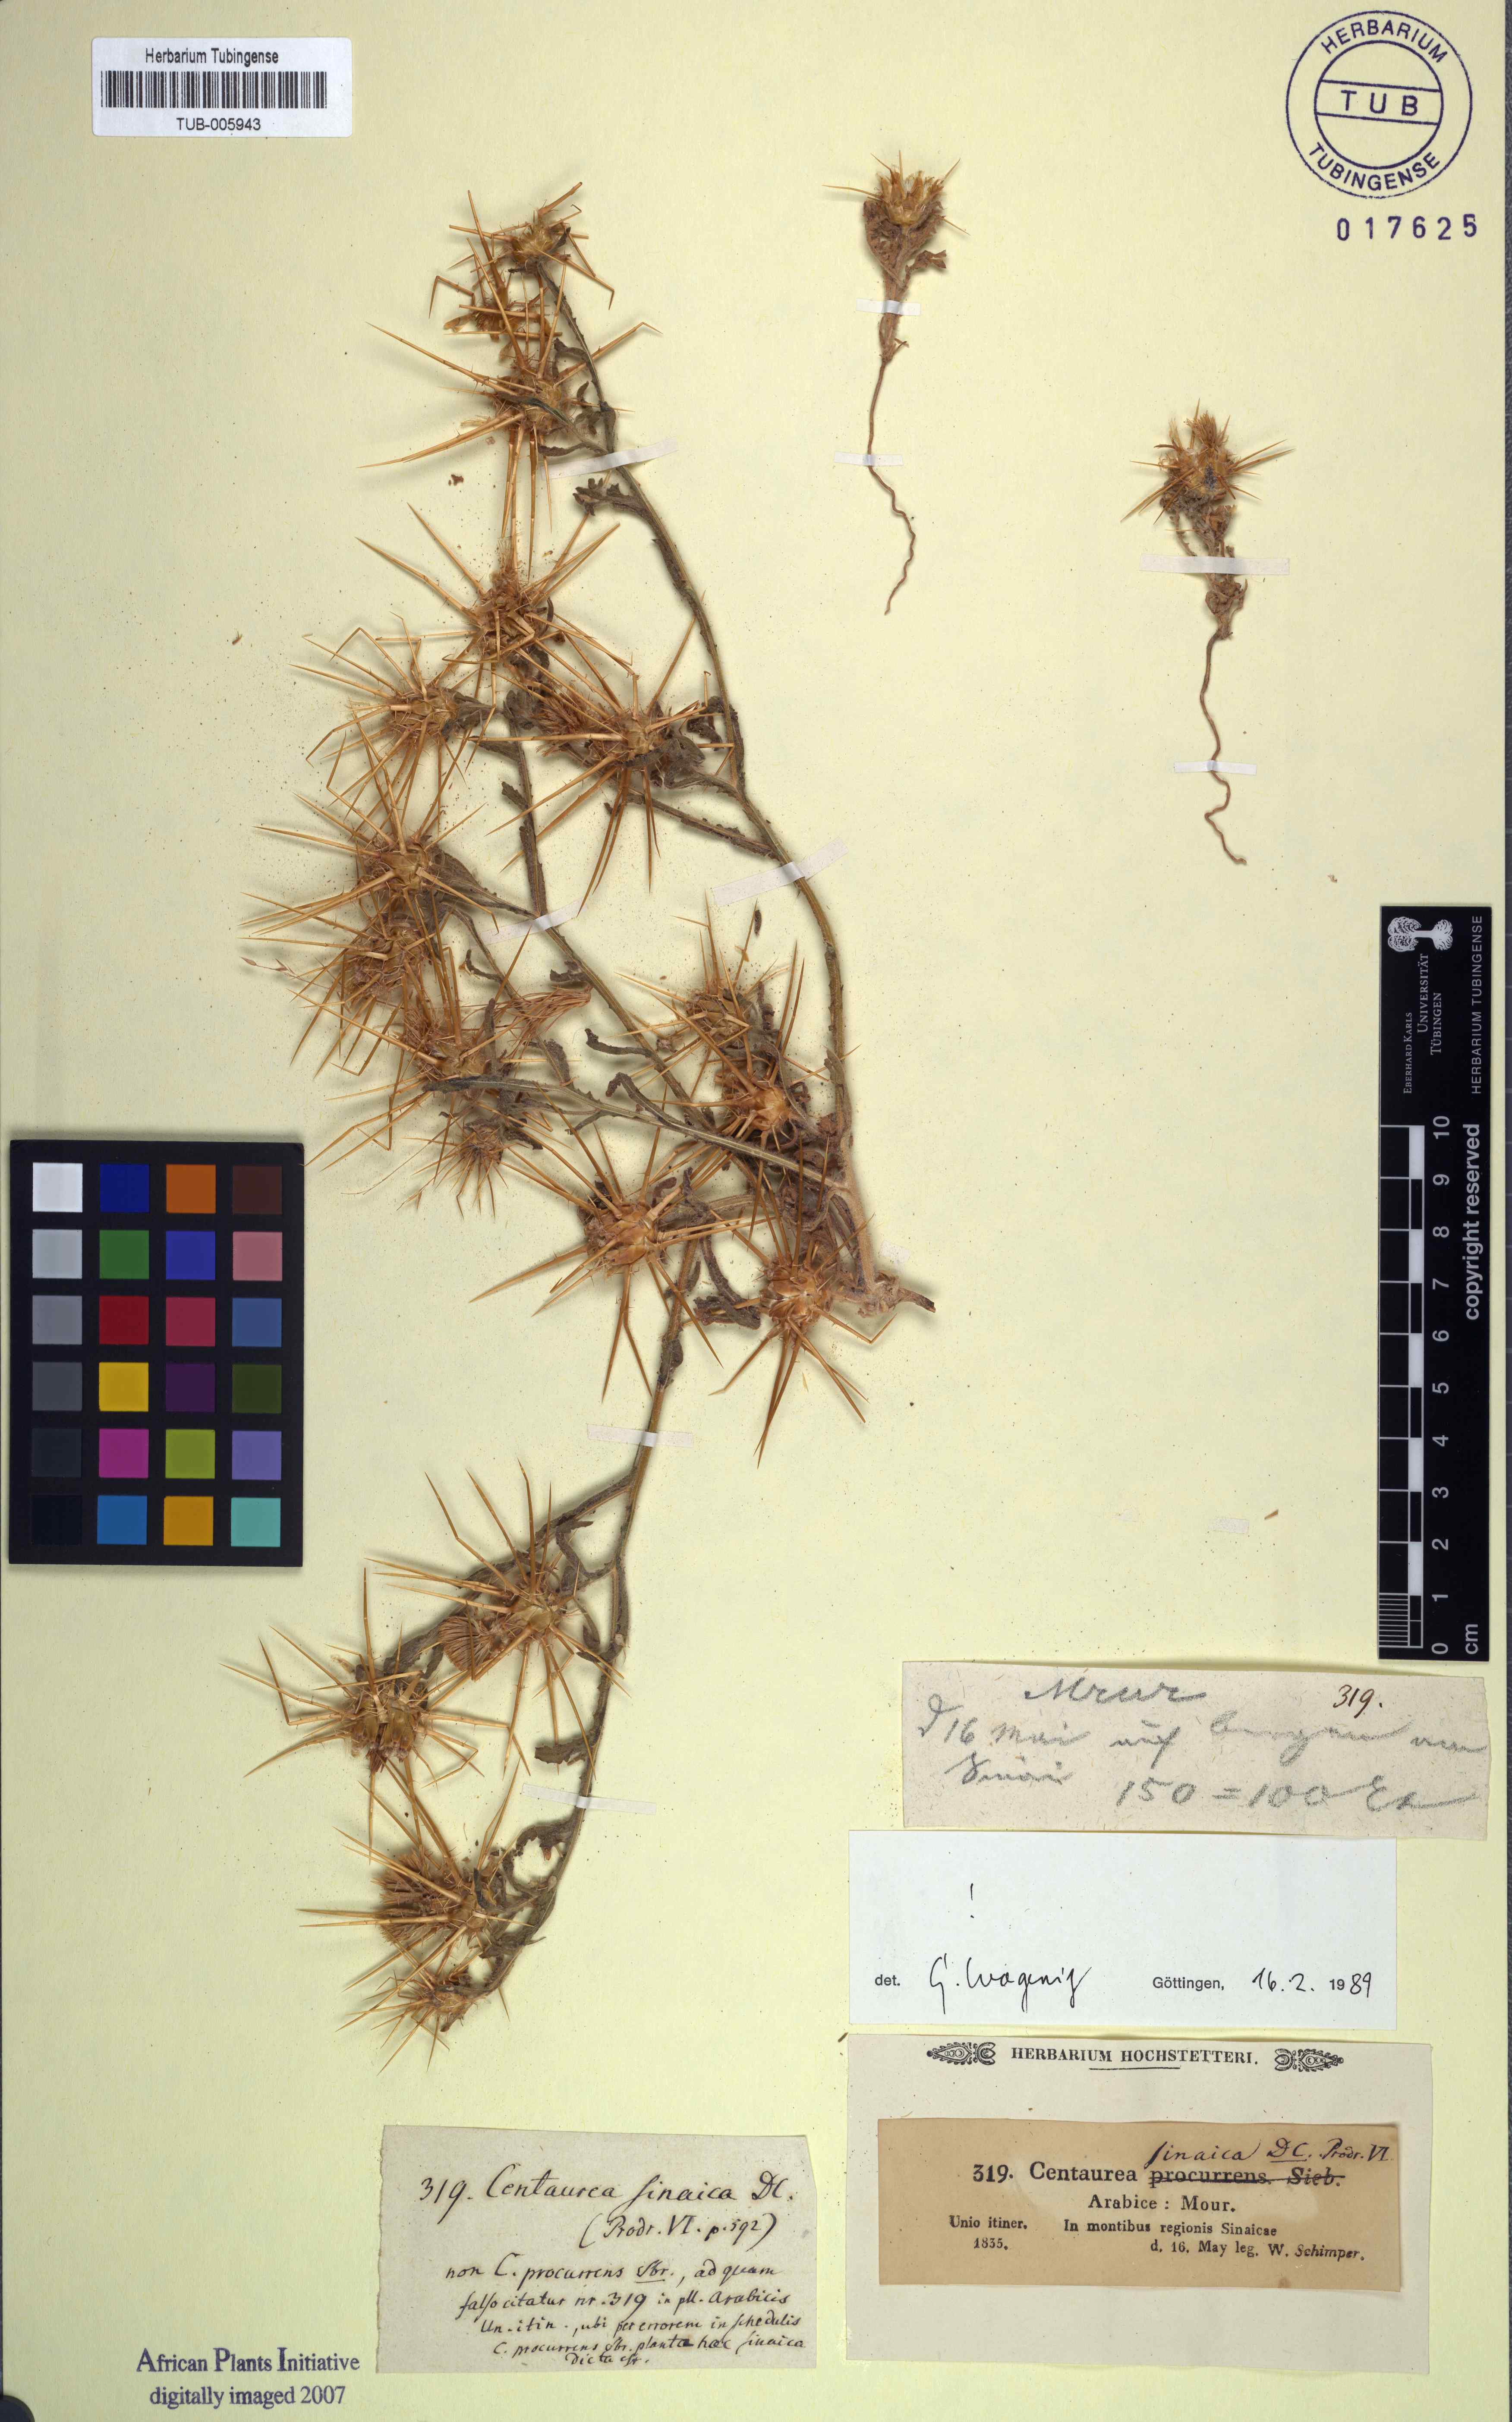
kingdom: Plantae
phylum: Tracheophyta
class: Magnoliopsida
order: Asterales
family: Asteraceae
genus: Centaurea
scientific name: Centaurea sinaica
